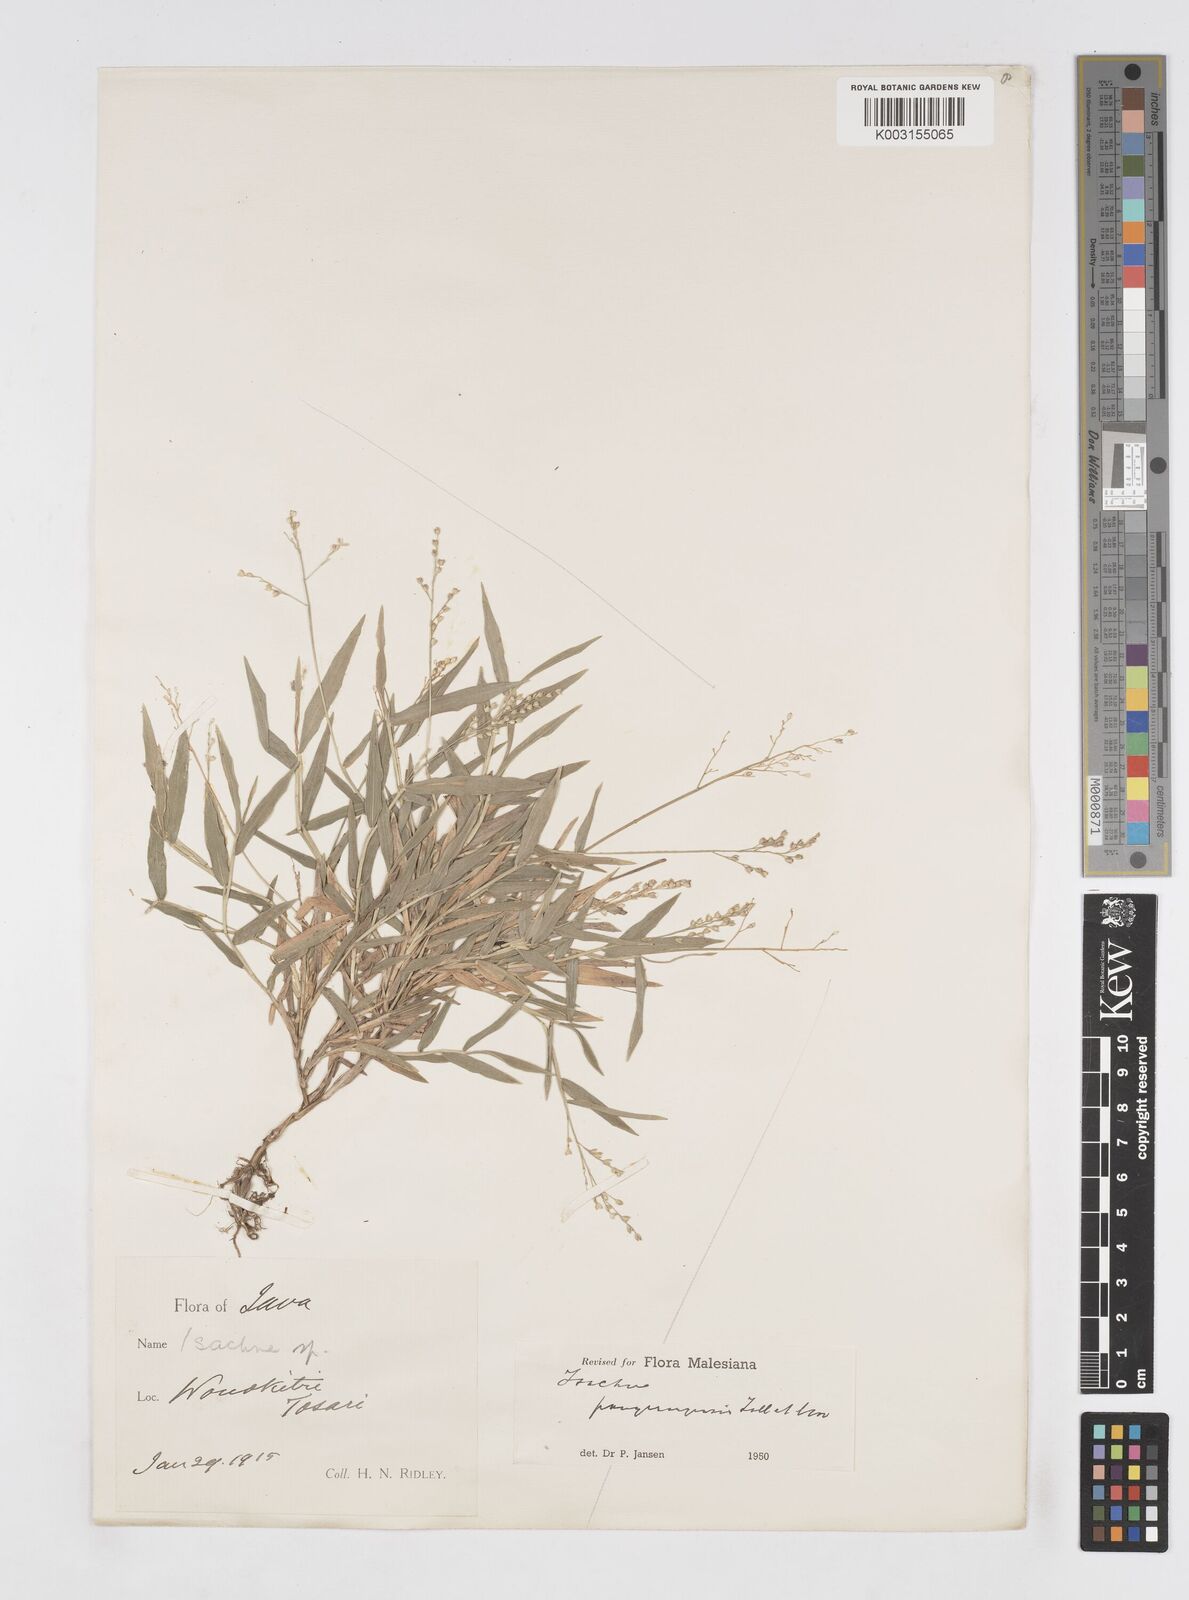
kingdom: Plantae
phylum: Tracheophyta
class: Liliopsida
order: Poales
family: Poaceae
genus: Isachne
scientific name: Isachne pangerangensis
